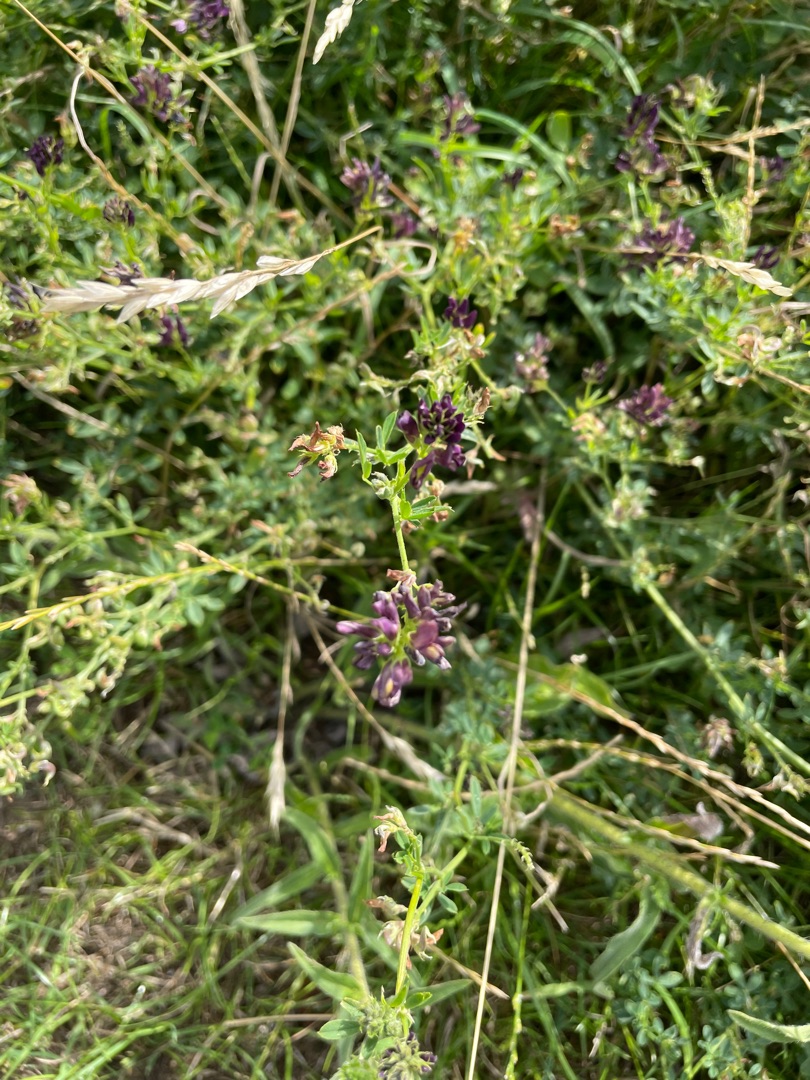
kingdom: Plantae
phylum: Tracheophyta
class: Magnoliopsida
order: Fabales
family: Fabaceae
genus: Medicago
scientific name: Medicago sativa
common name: Lucerne
